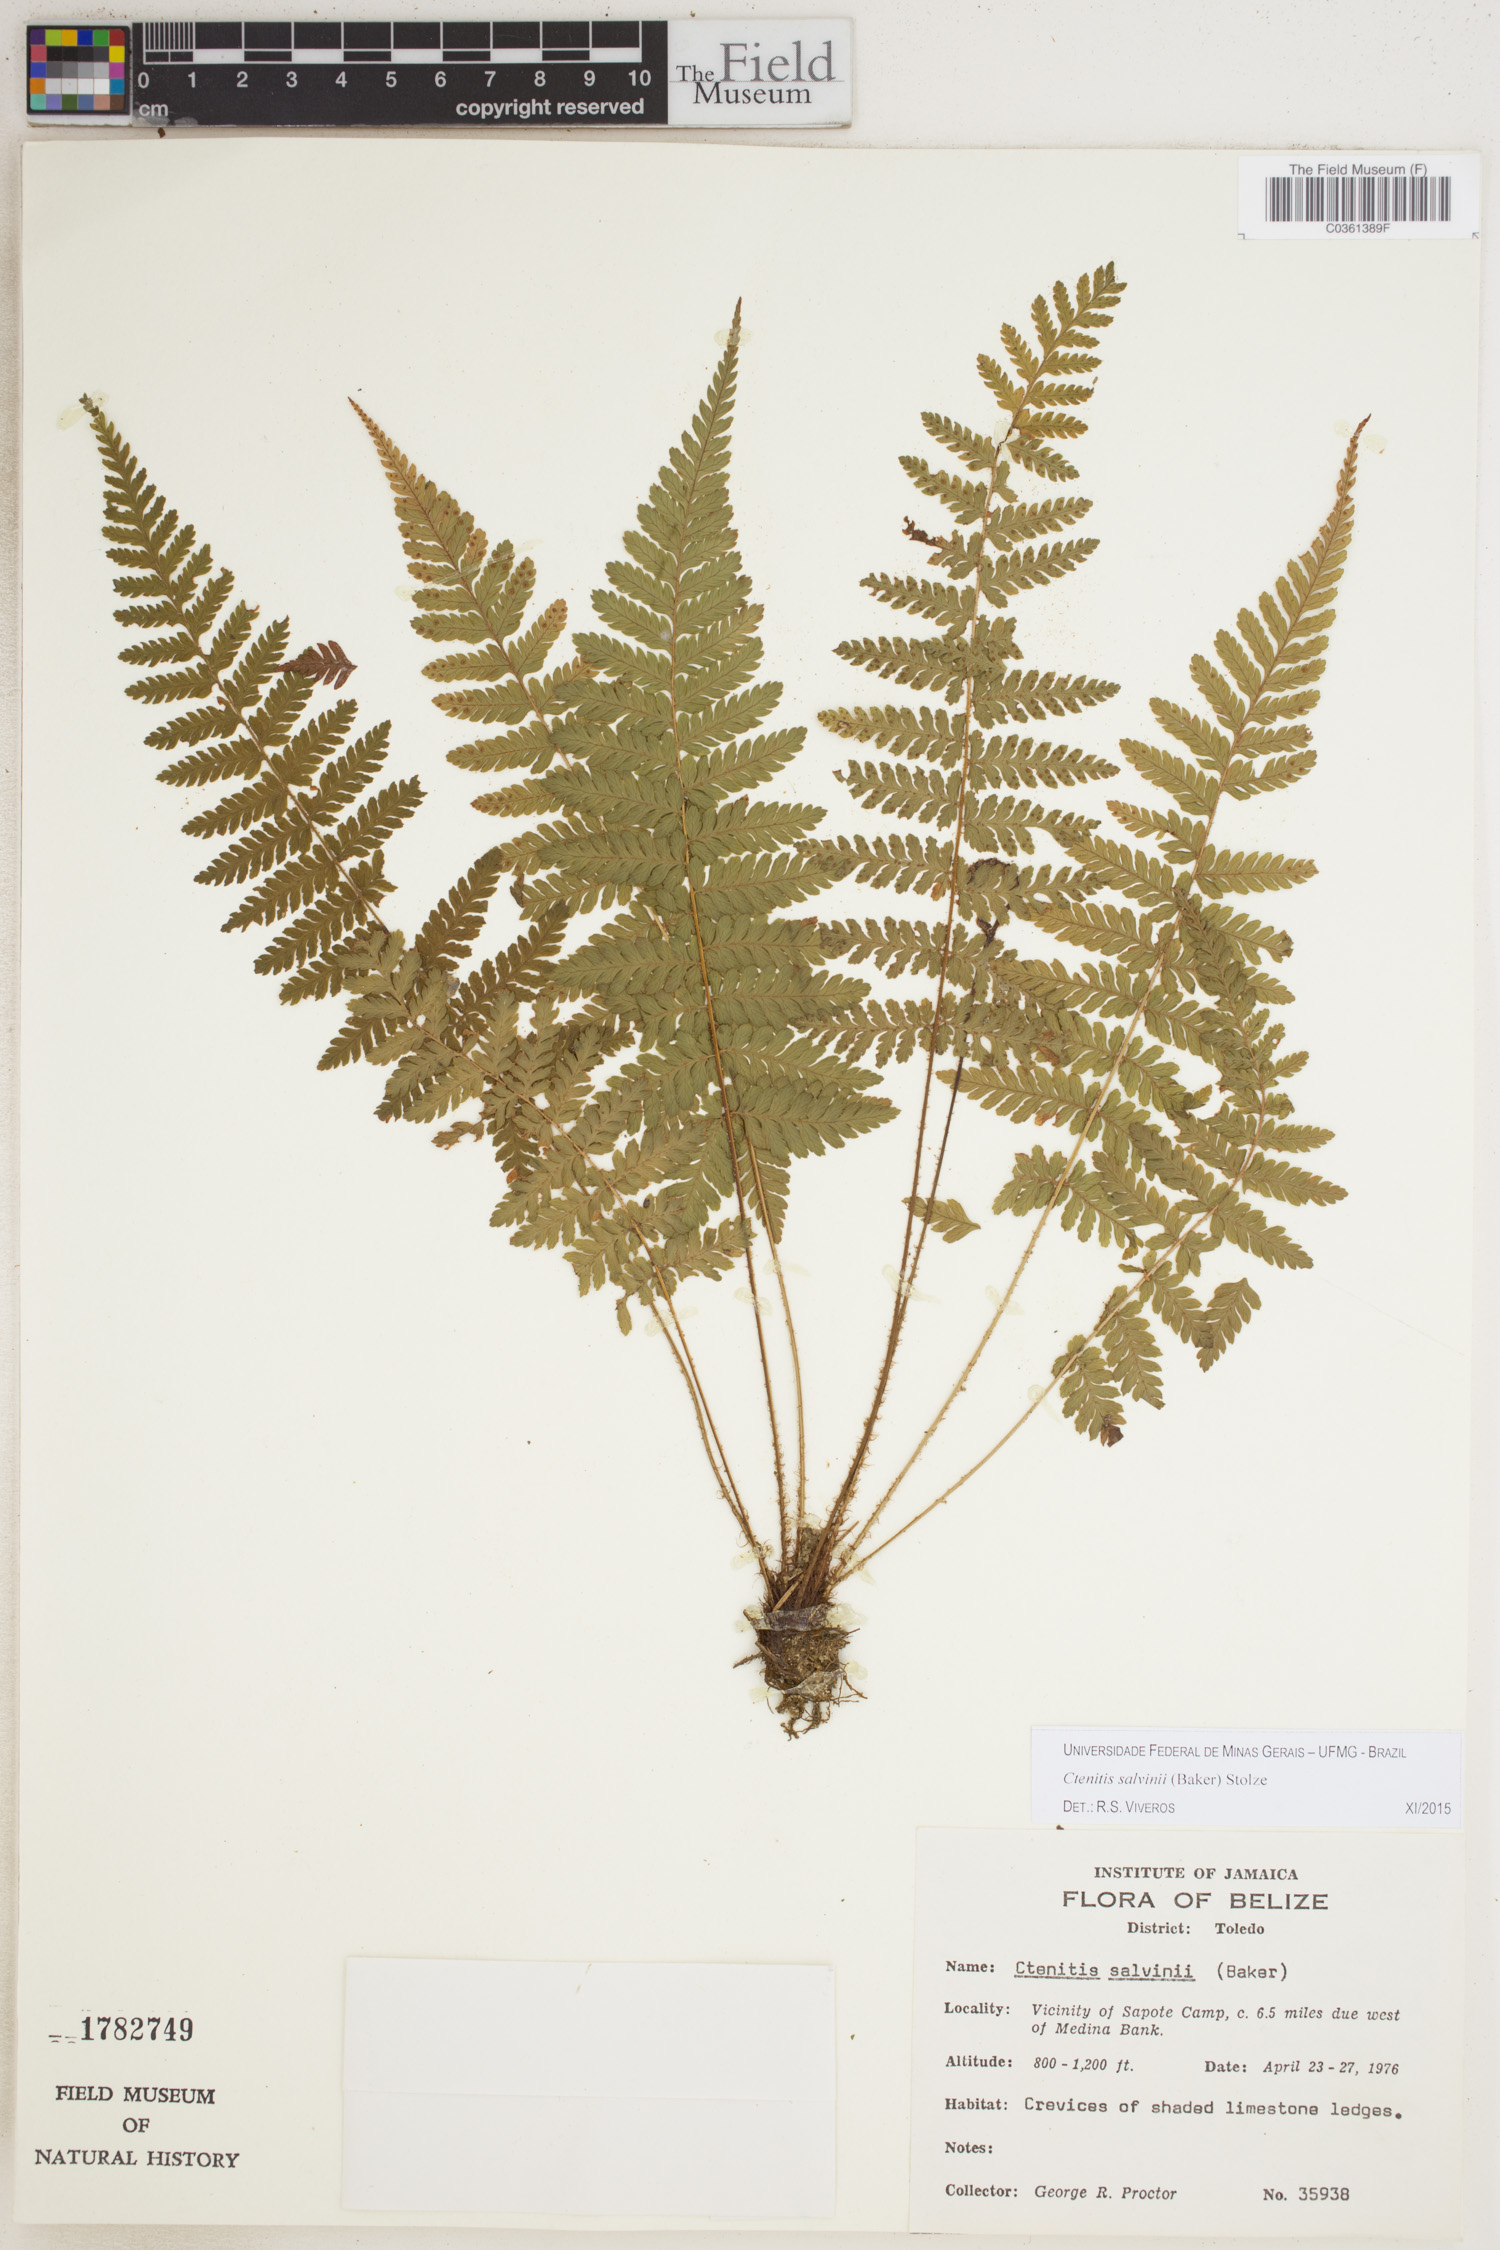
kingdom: Plantae
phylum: Tracheophyta
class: Polypodiopsida
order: Polypodiales
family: Dryopteridaceae
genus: Ctenitis
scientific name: Ctenitis salvinii
